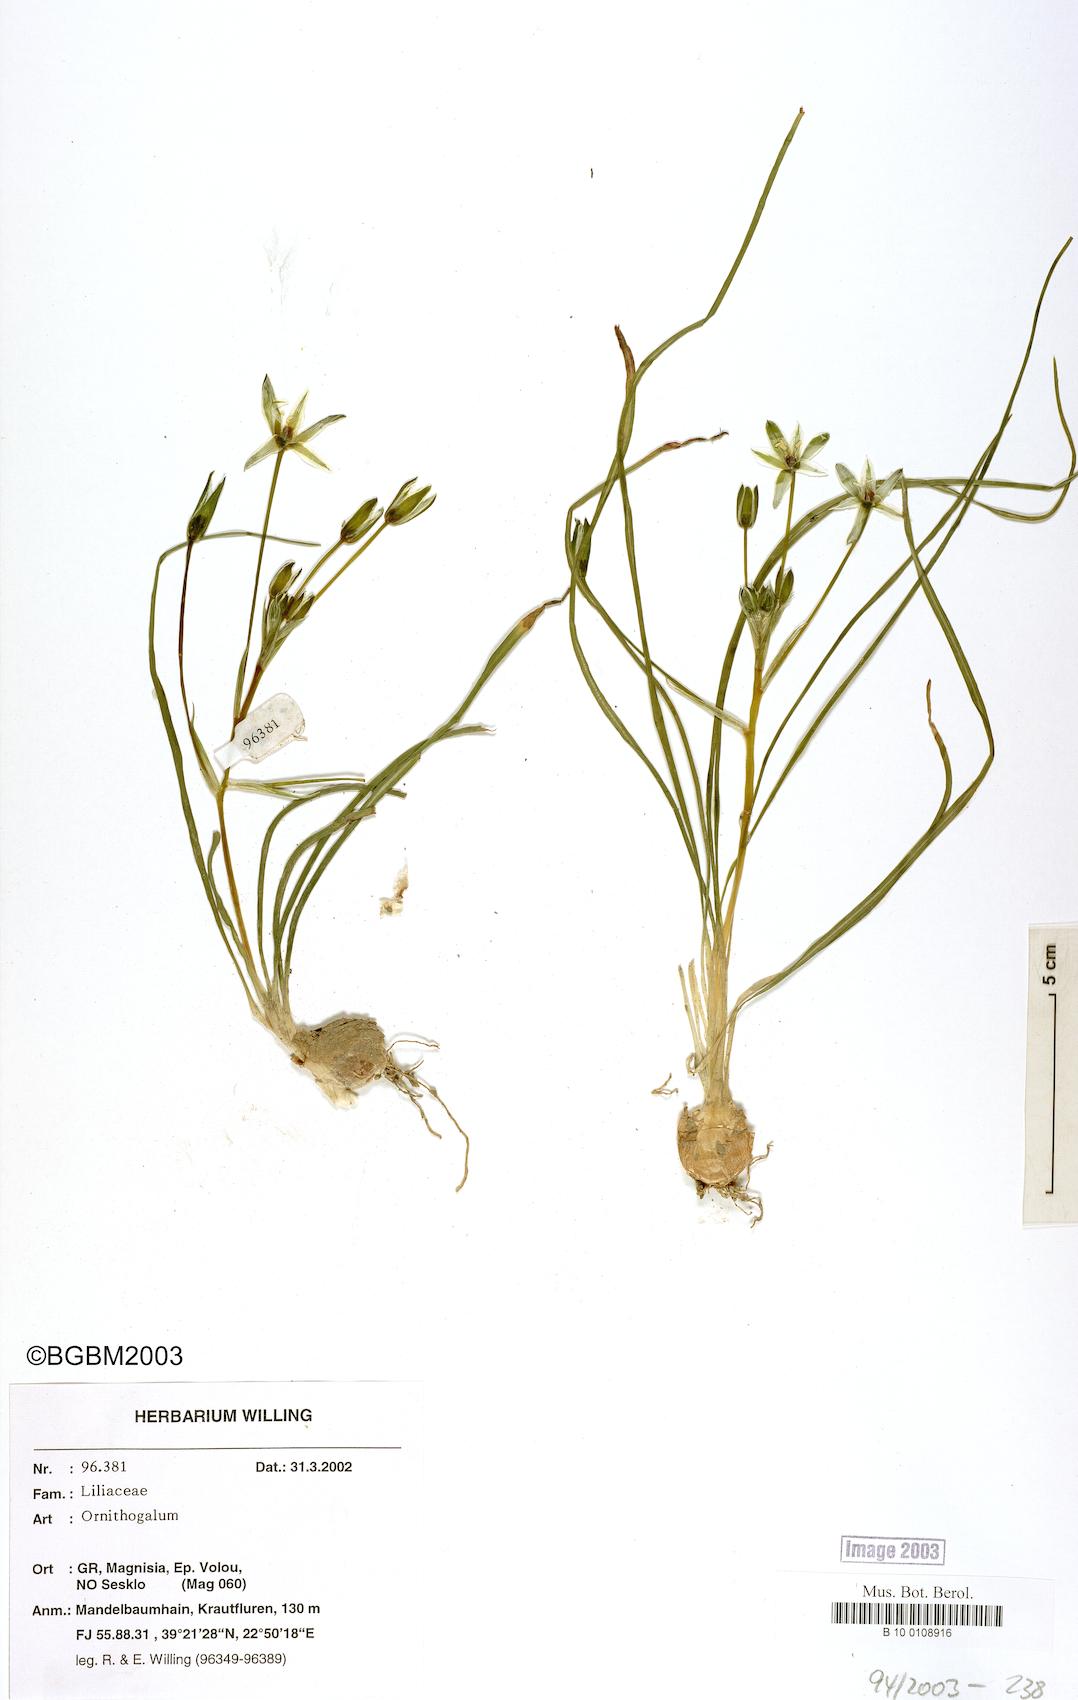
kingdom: Plantae
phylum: Tracheophyta
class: Liliopsida
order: Asparagales
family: Asparagaceae
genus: Ornithogalum
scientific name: Ornithogalum
